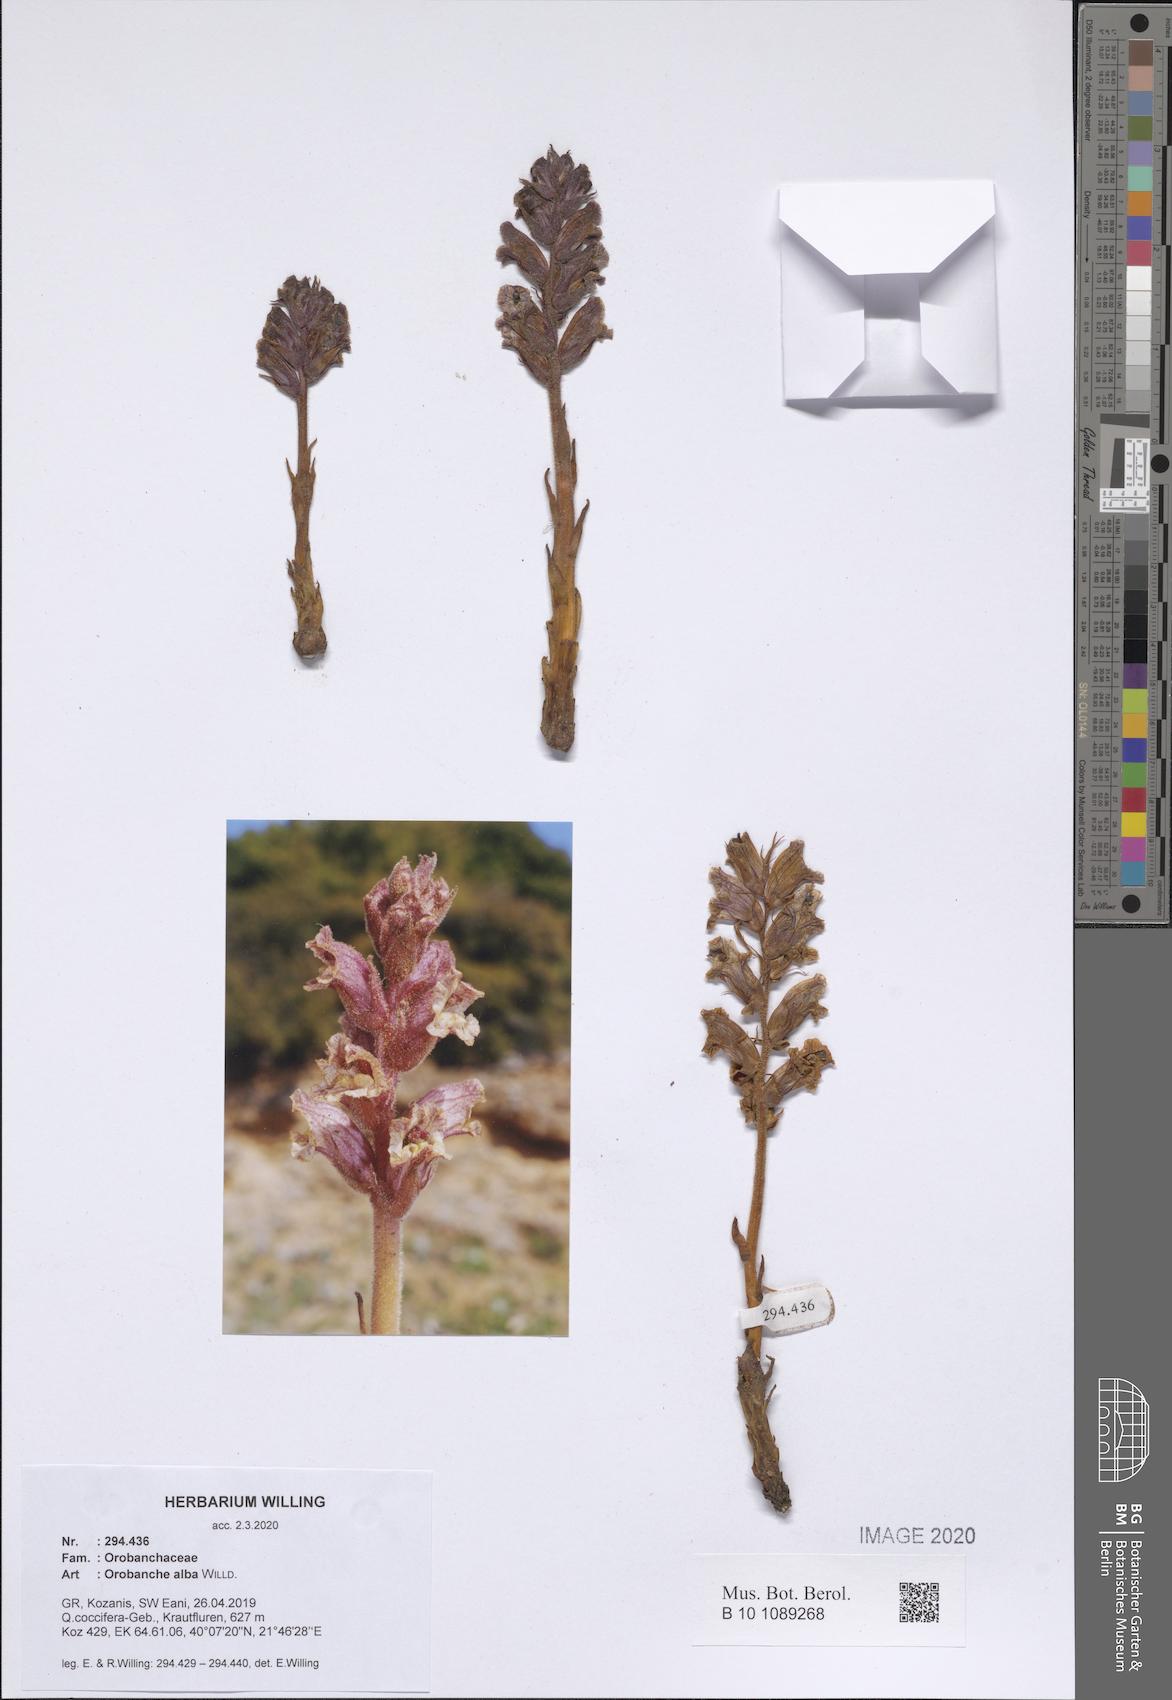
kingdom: Plantae
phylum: Tracheophyta
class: Magnoliopsida
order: Lamiales
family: Orobanchaceae
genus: Orobanche
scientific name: Orobanche alba
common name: Thyme broomrape
